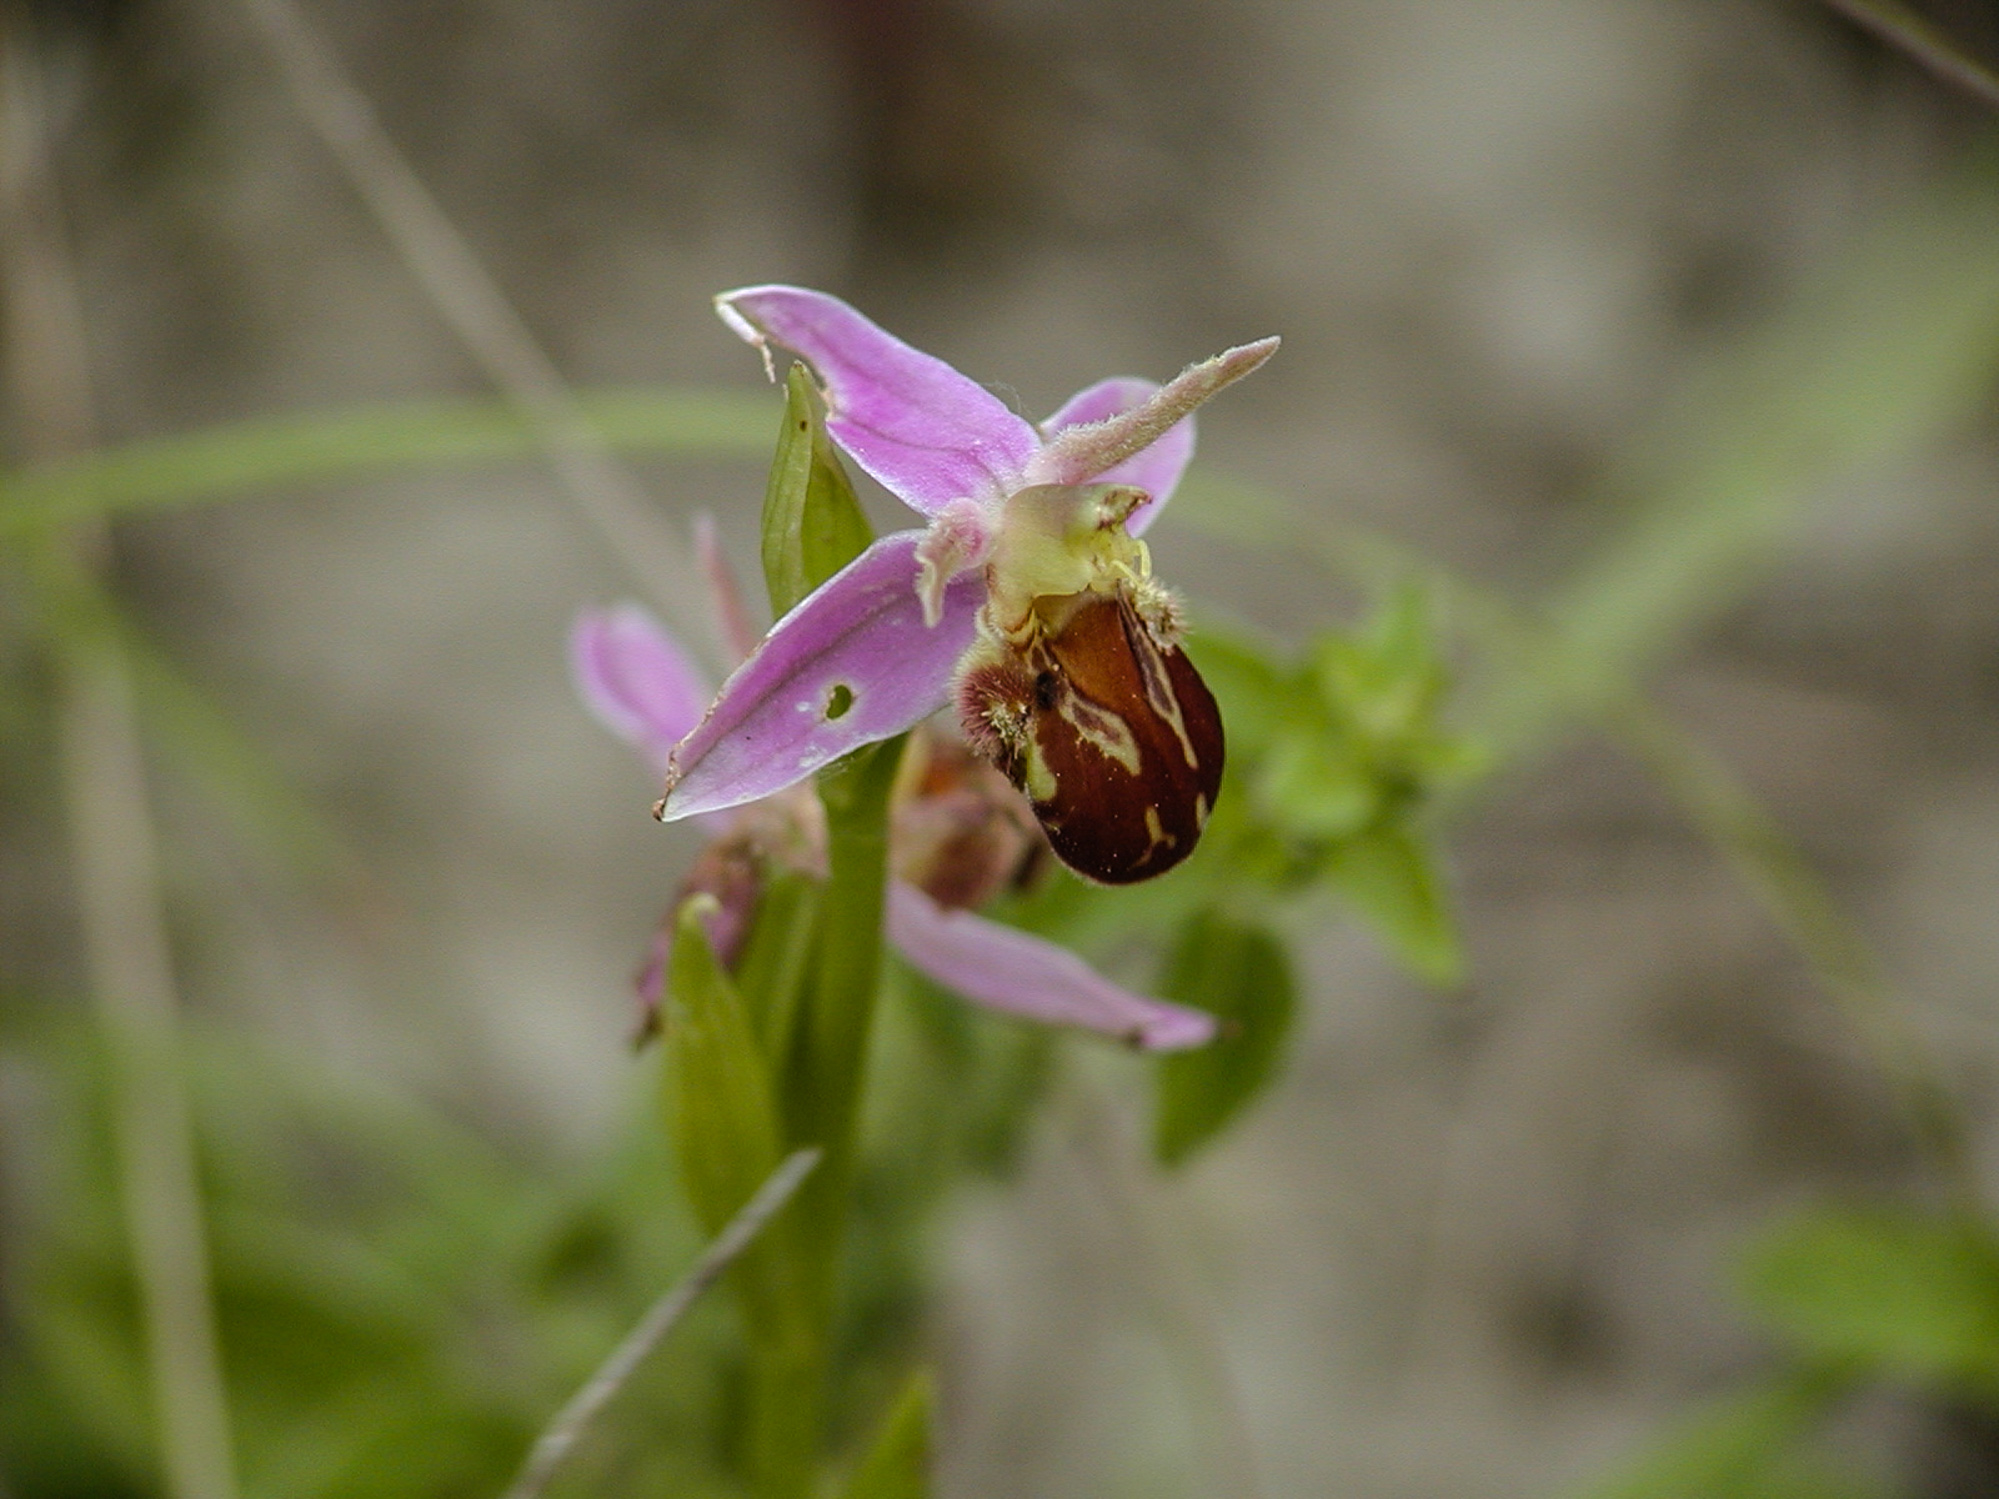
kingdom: Plantae
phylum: Tracheophyta
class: Liliopsida
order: Asparagales
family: Orchidaceae
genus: Ophrys
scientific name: Ophrys apifera
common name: Bee orchid
